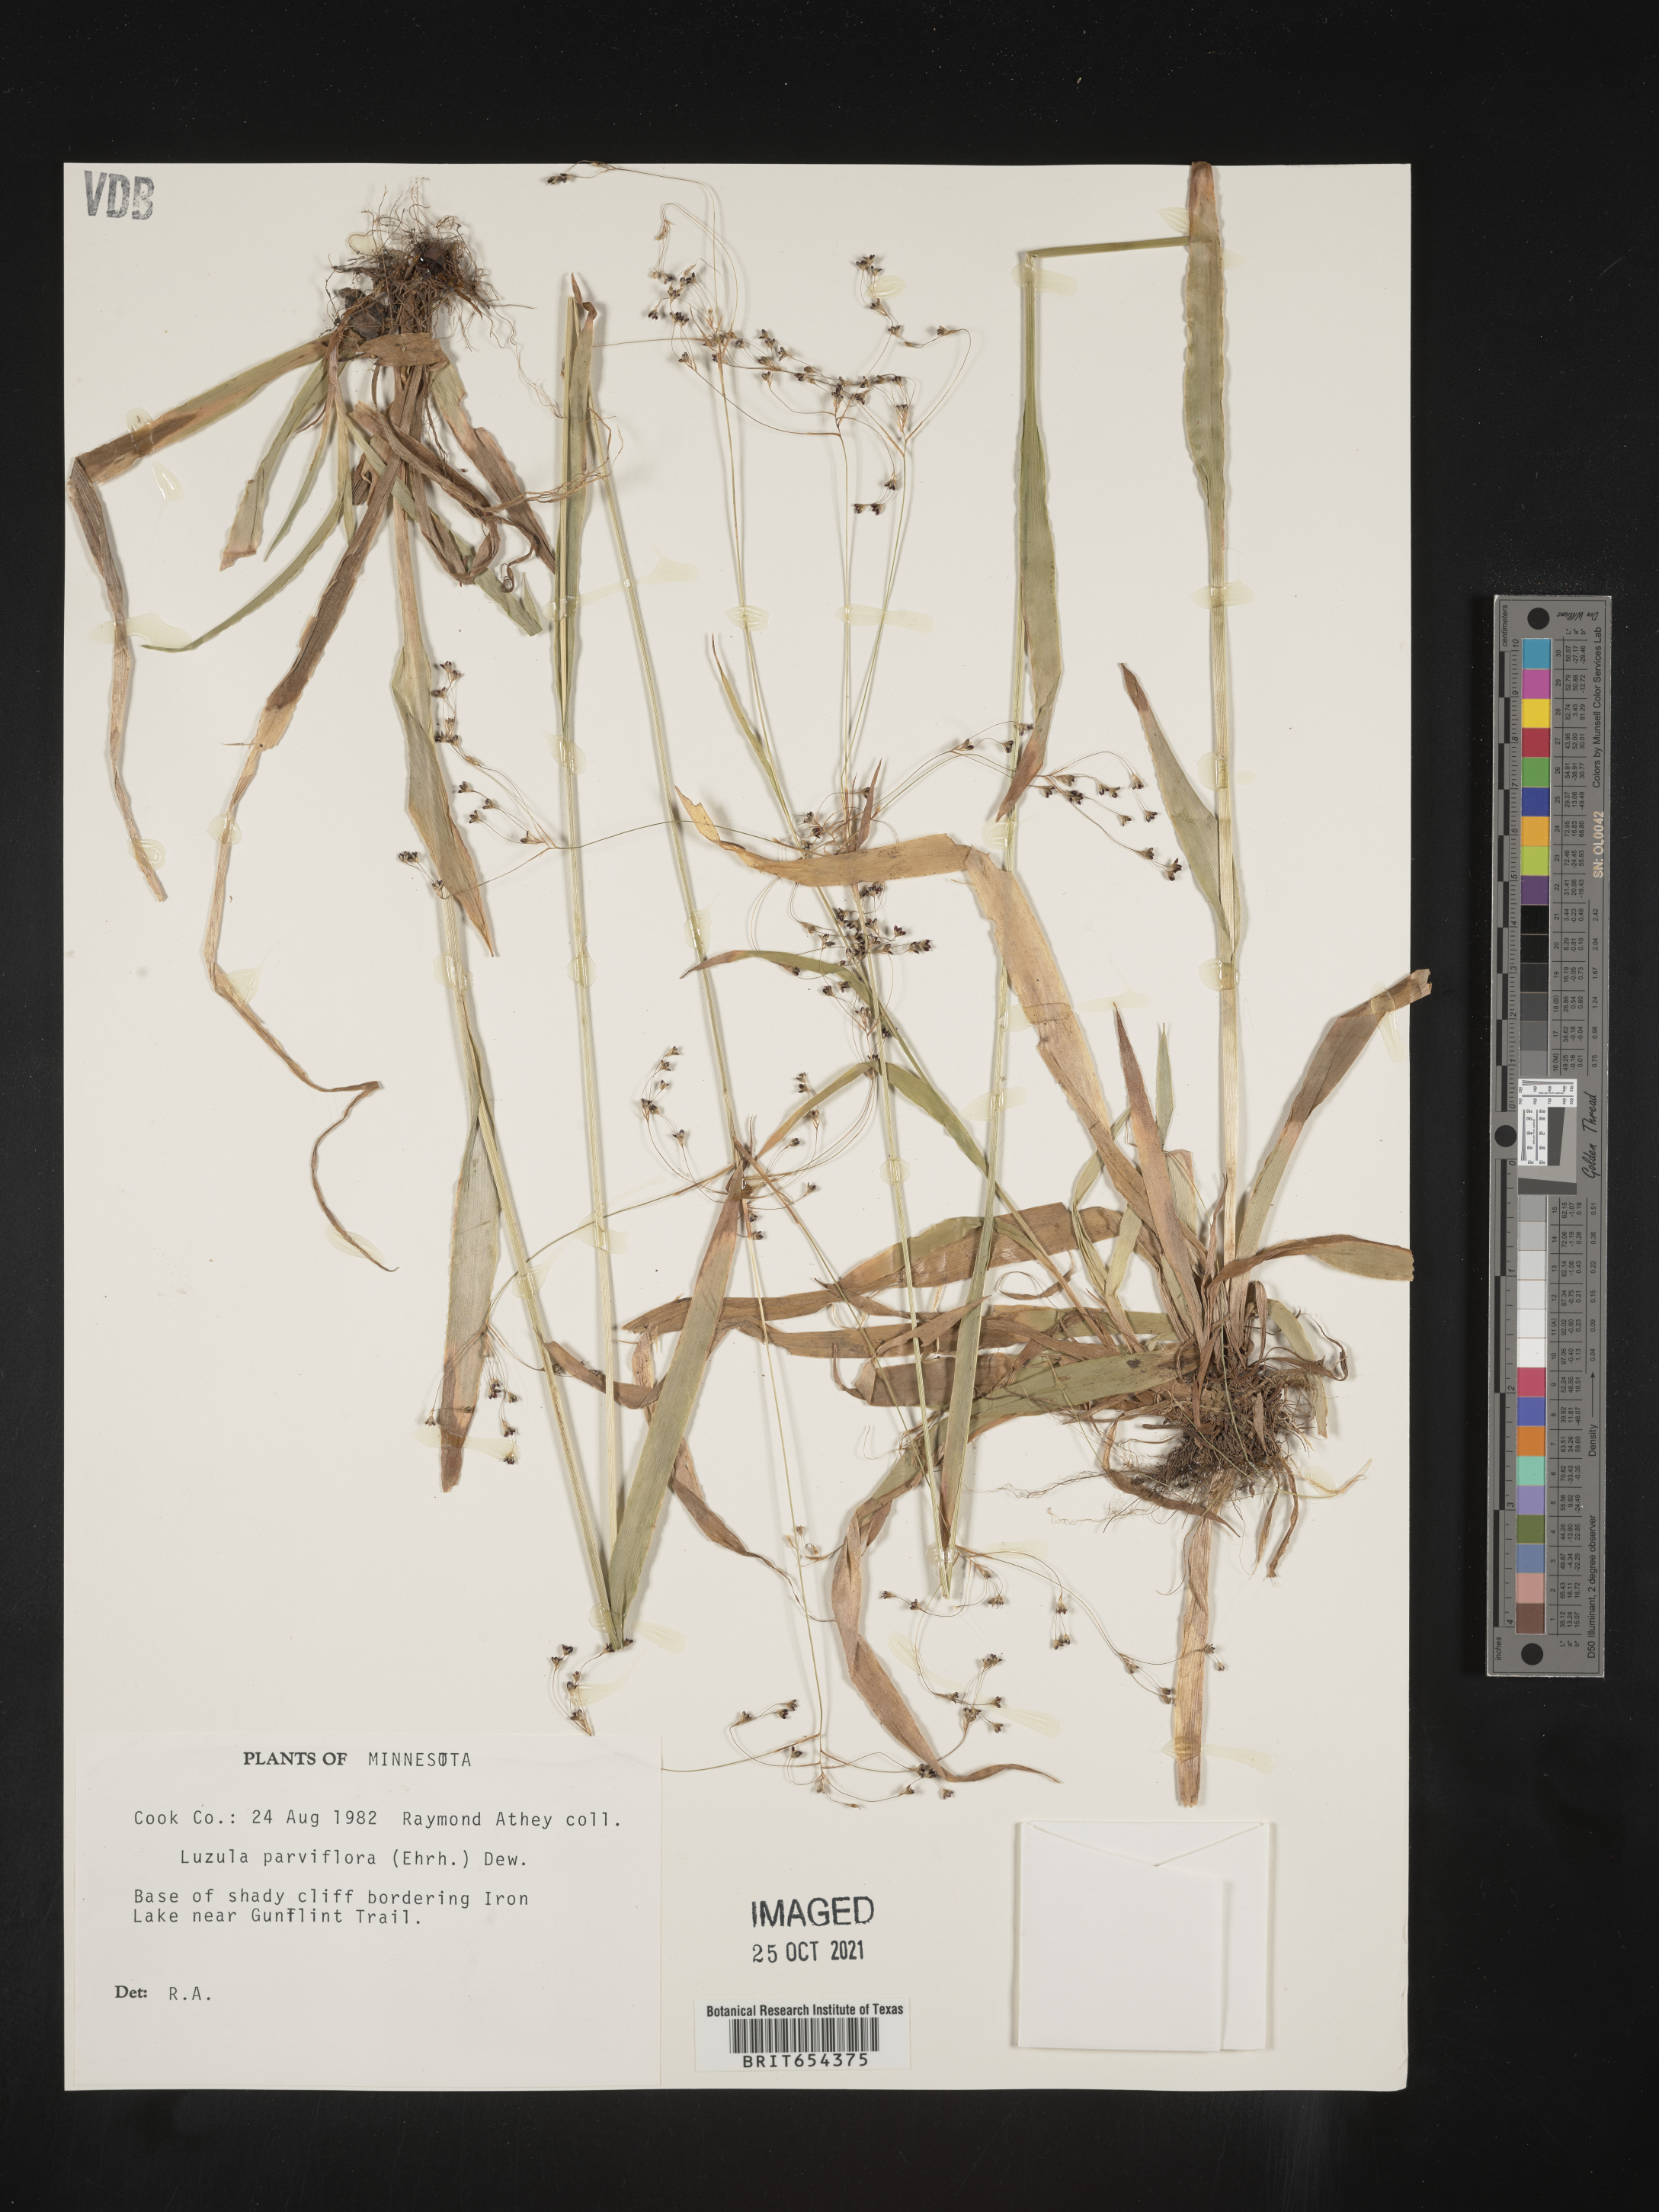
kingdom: Plantae
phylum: Tracheophyta
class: Liliopsida
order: Poales
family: Juncaceae
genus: Luzula
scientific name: Luzula parviflora
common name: Millet woodrush
